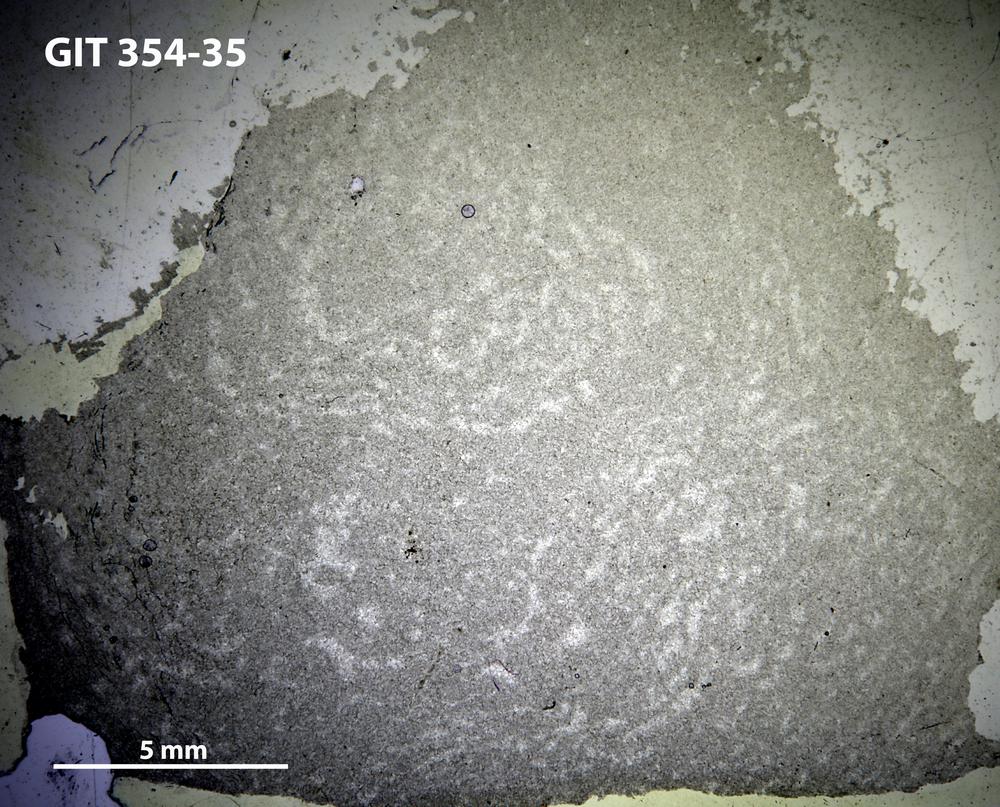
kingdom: Animalia
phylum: Porifera
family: Pseudolabechiidae
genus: Plumatalinia
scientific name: Plumatalinia ferax
